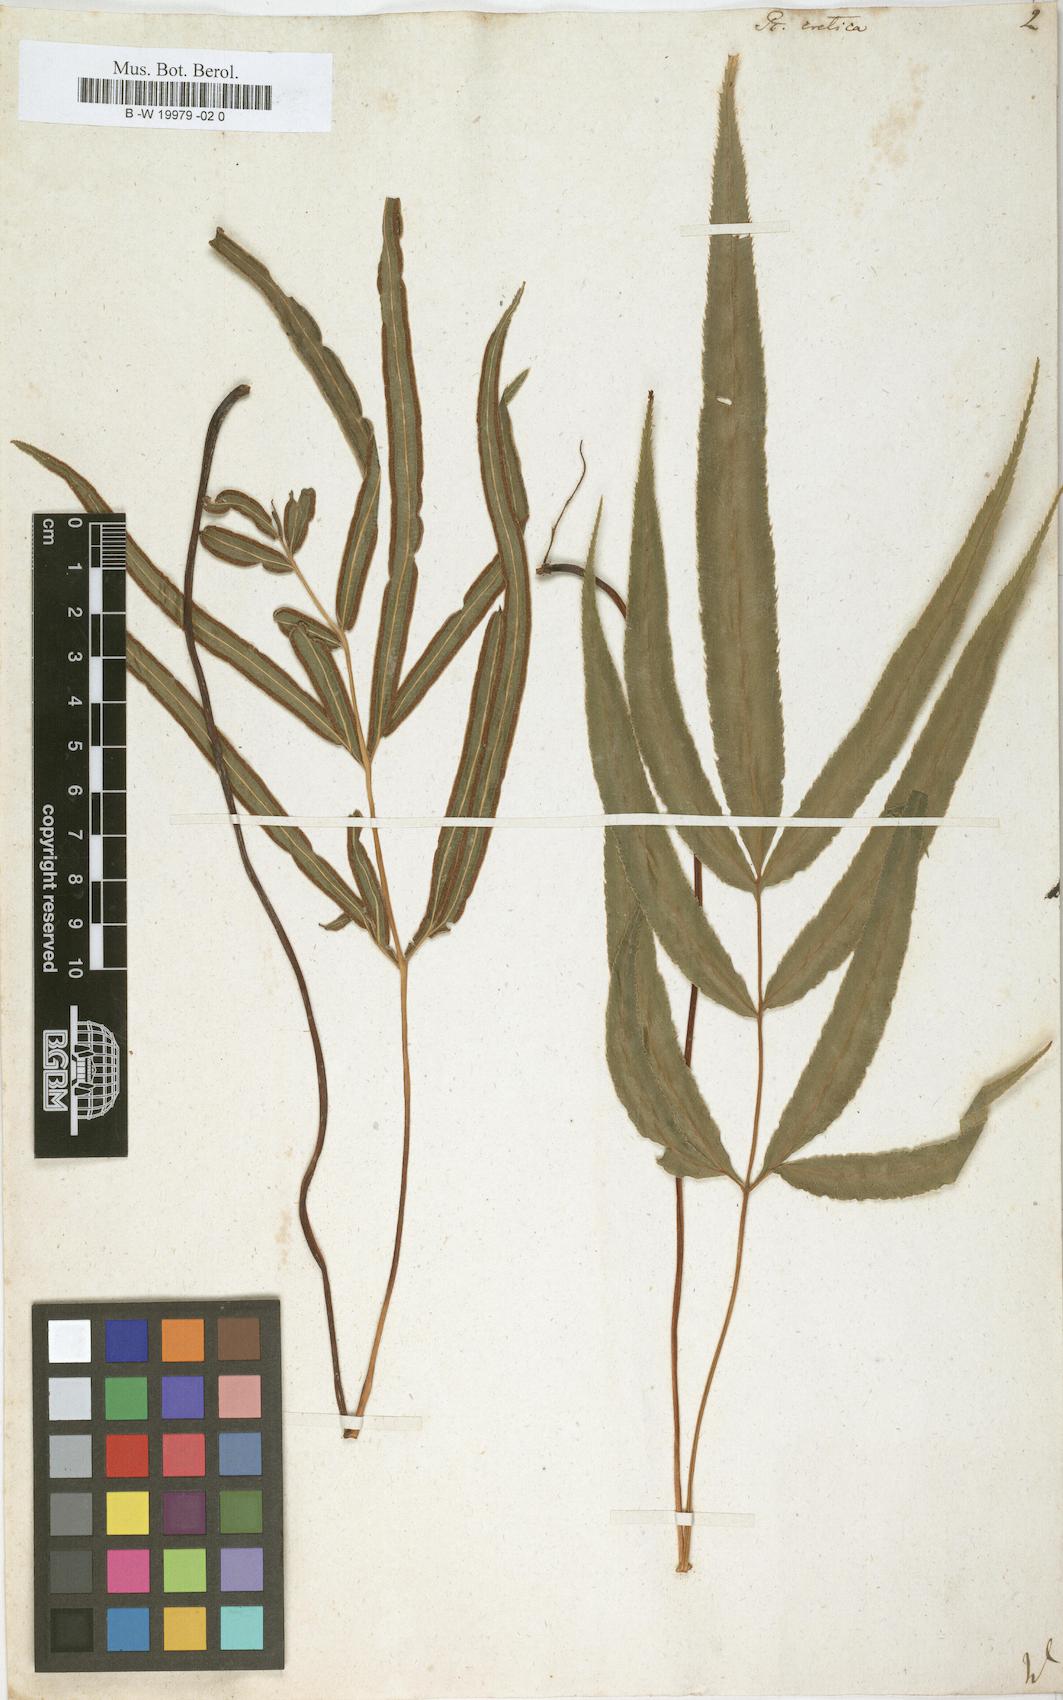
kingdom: Plantae
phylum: Tracheophyta
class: Polypodiopsida
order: Polypodiales
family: Pteridaceae
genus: Pteris
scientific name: Pteris cretica
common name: Ribbon fern
